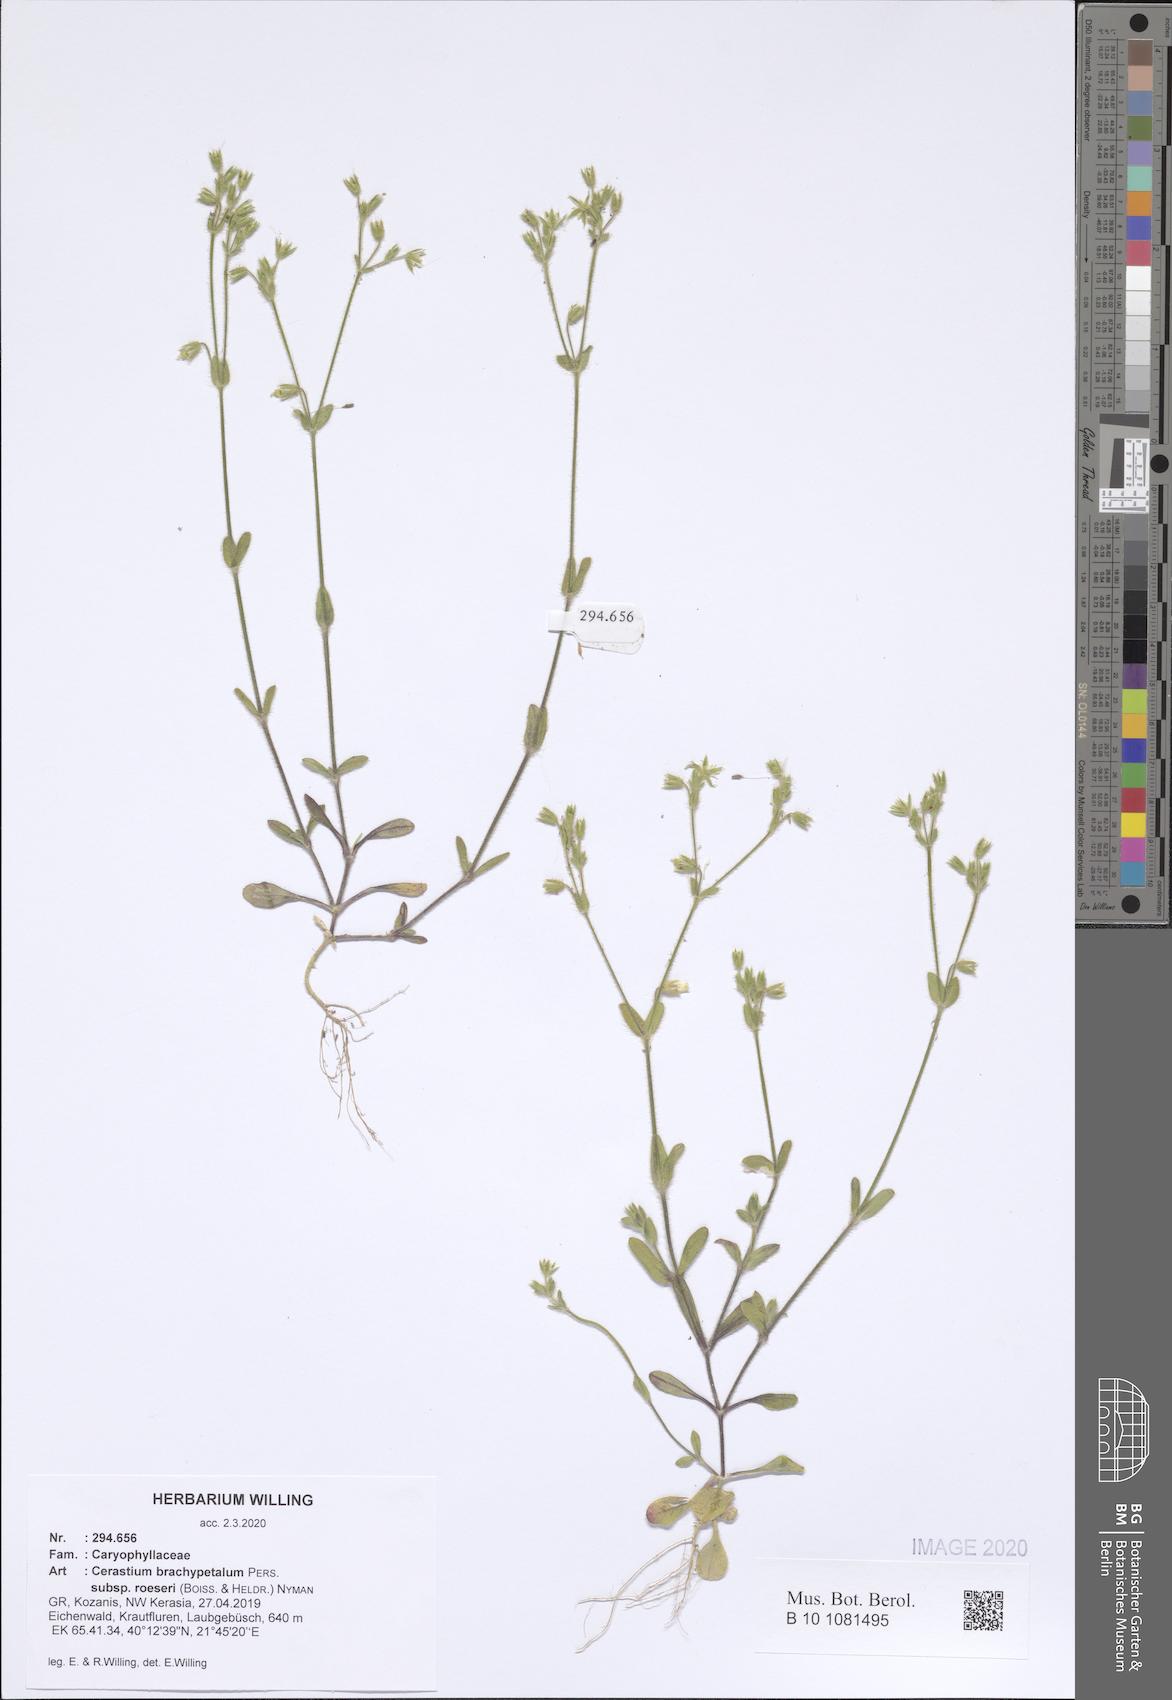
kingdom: Plantae
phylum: Tracheophyta
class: Magnoliopsida
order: Caryophyllales
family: Caryophyllaceae
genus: Cerastium
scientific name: Cerastium brachypetalum
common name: Grey mouse-ear
